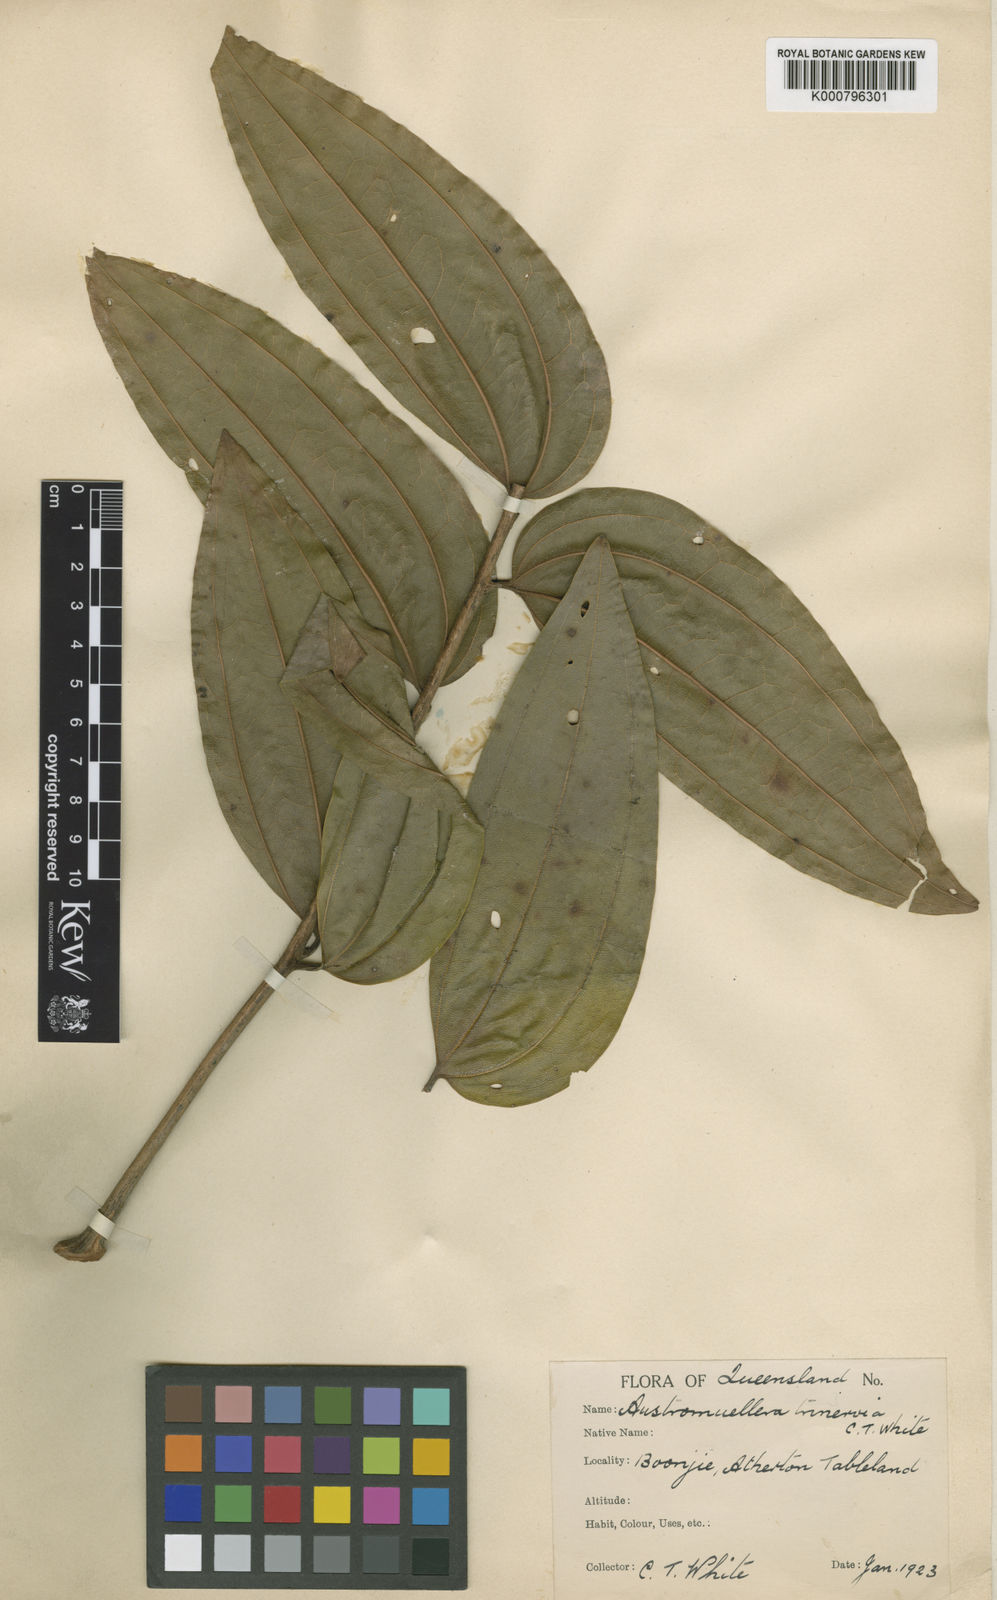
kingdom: Plantae
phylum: Tracheophyta
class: Magnoliopsida
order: Proteales
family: Proteaceae
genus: Austromuellera
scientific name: Austromuellera trinervia
